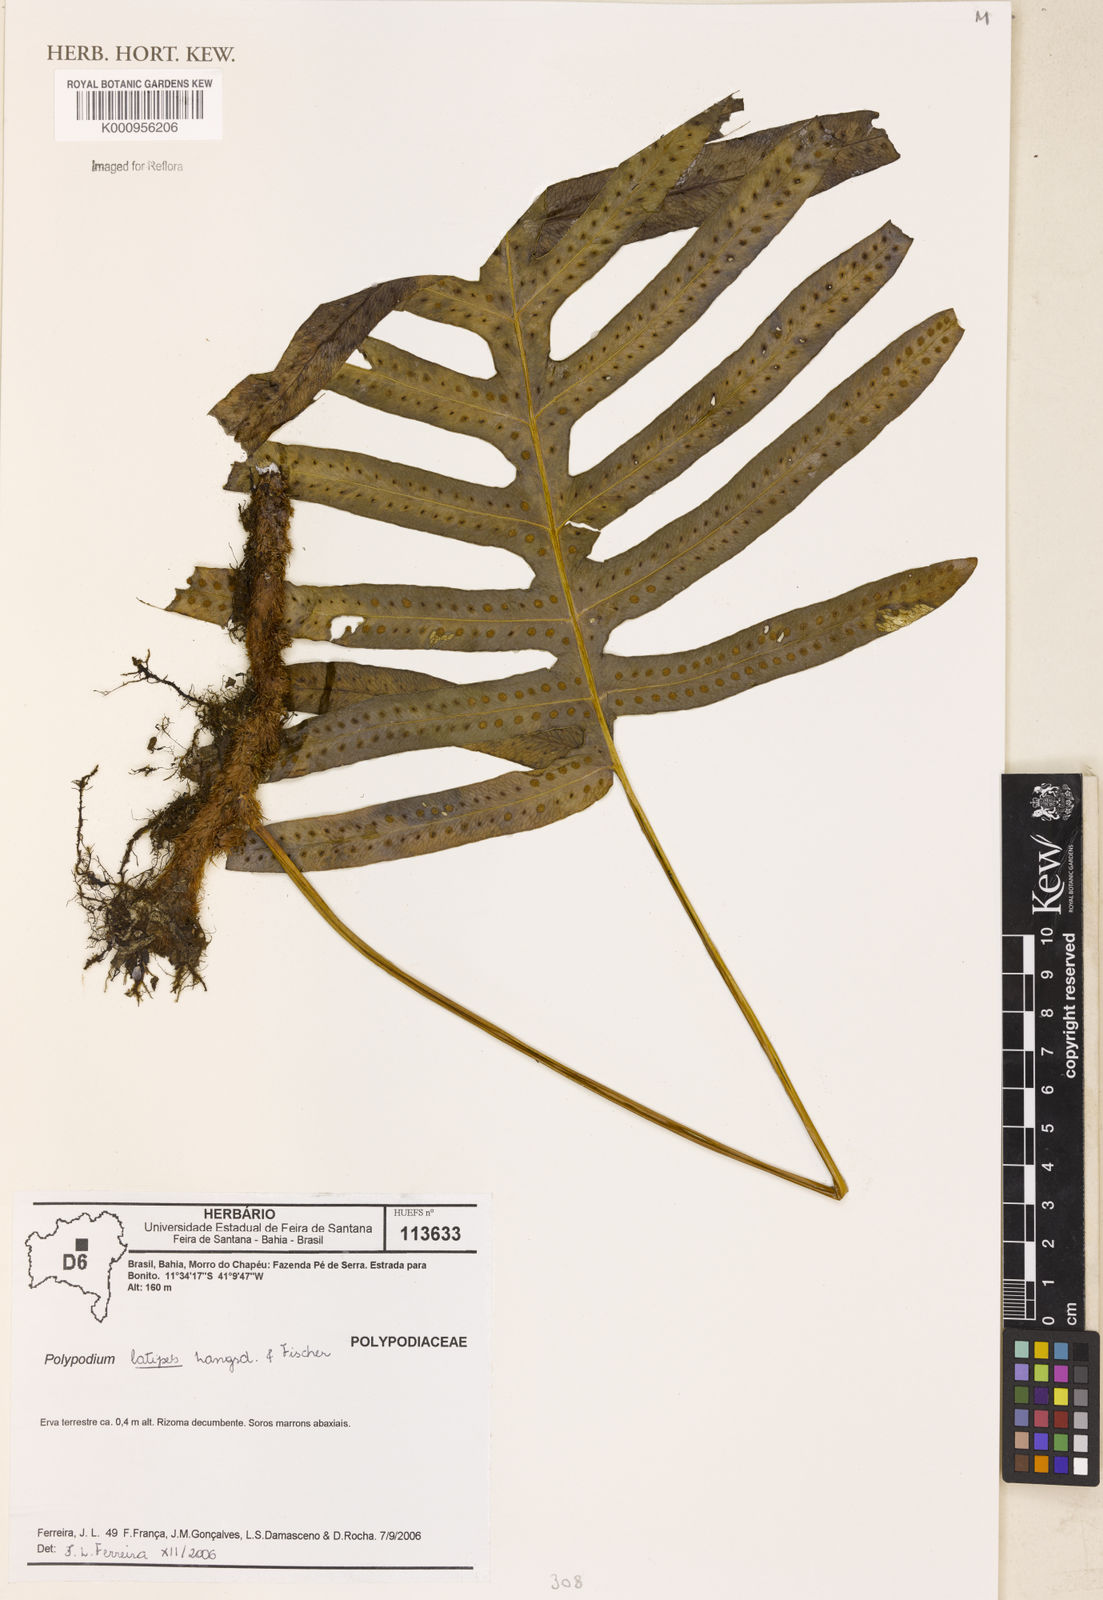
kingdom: Plantae
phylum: Tracheophyta
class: Polypodiopsida
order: Polypodiales
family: Polypodiaceae
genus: Serpocaulon
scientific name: Serpocaulon latipes
